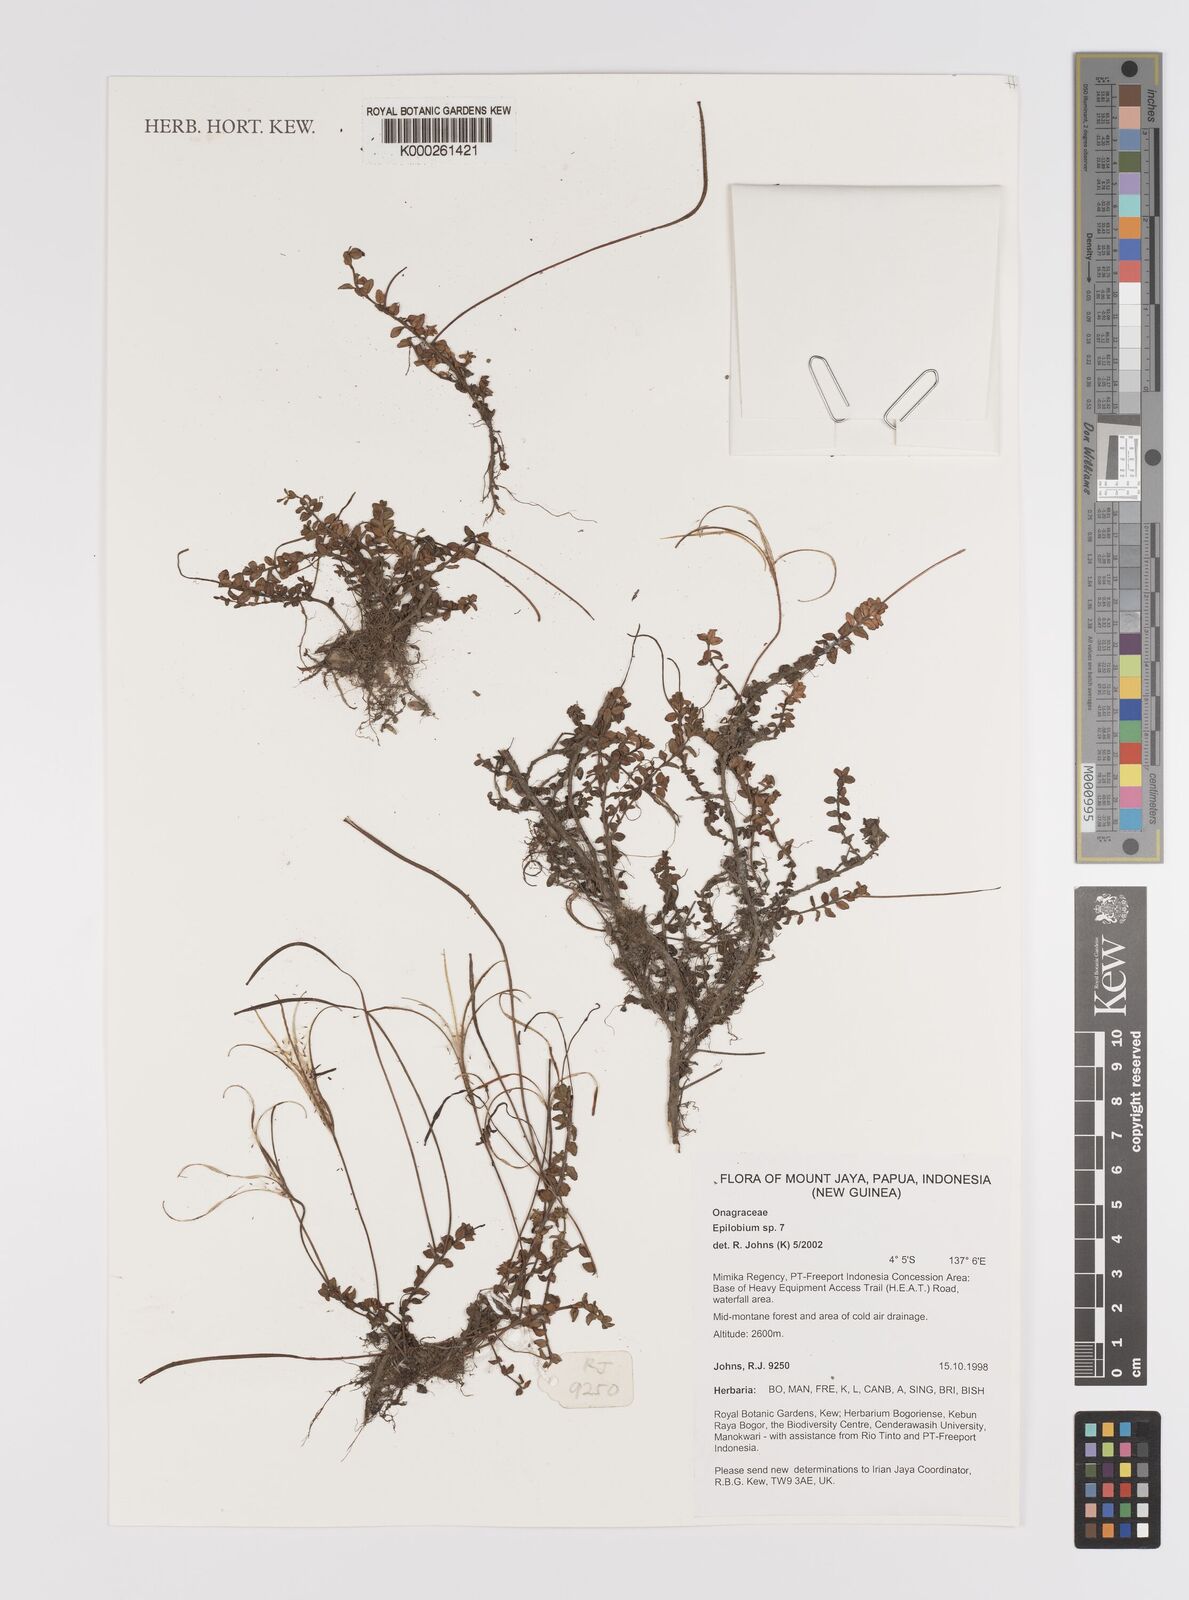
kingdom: Plantae
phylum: Tracheophyta
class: Magnoliopsida
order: Myrtales
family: Onagraceae
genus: Epilobium
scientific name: Epilobium
